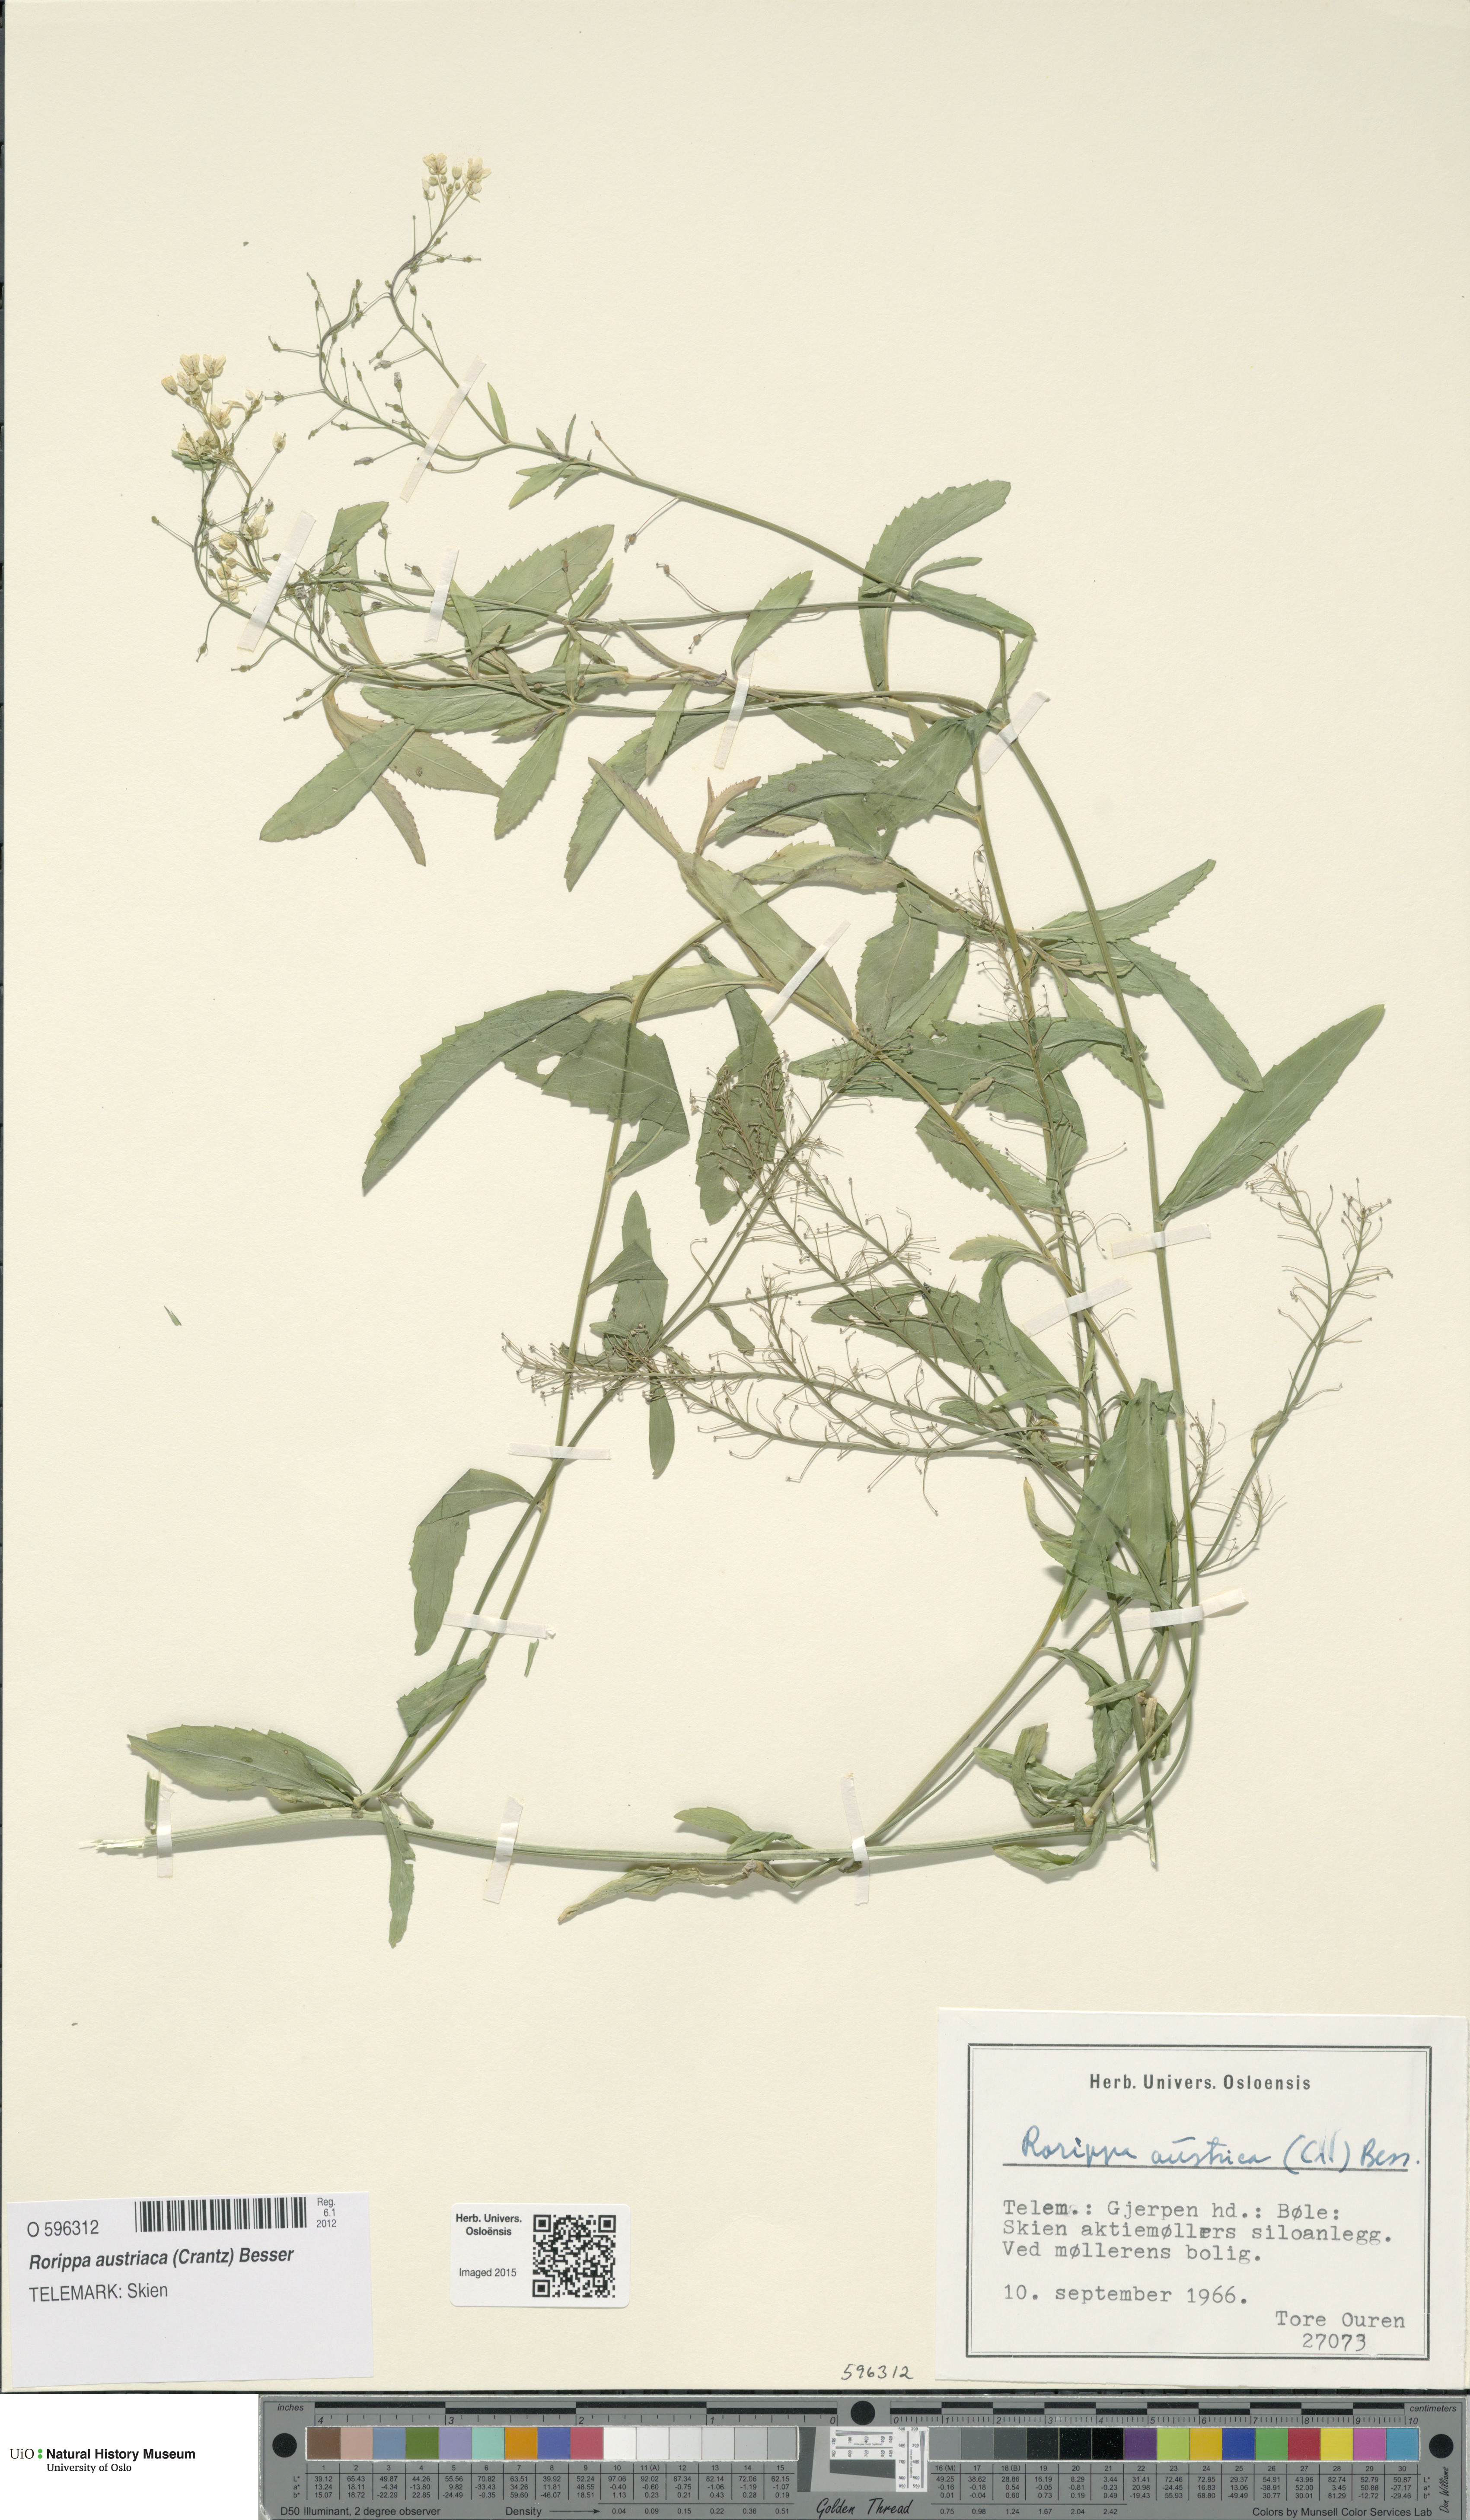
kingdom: Plantae
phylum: Tracheophyta
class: Magnoliopsida
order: Brassicales
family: Brassicaceae
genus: Rorippa
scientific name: Rorippa austriaca
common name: Austrian yellow-cress
